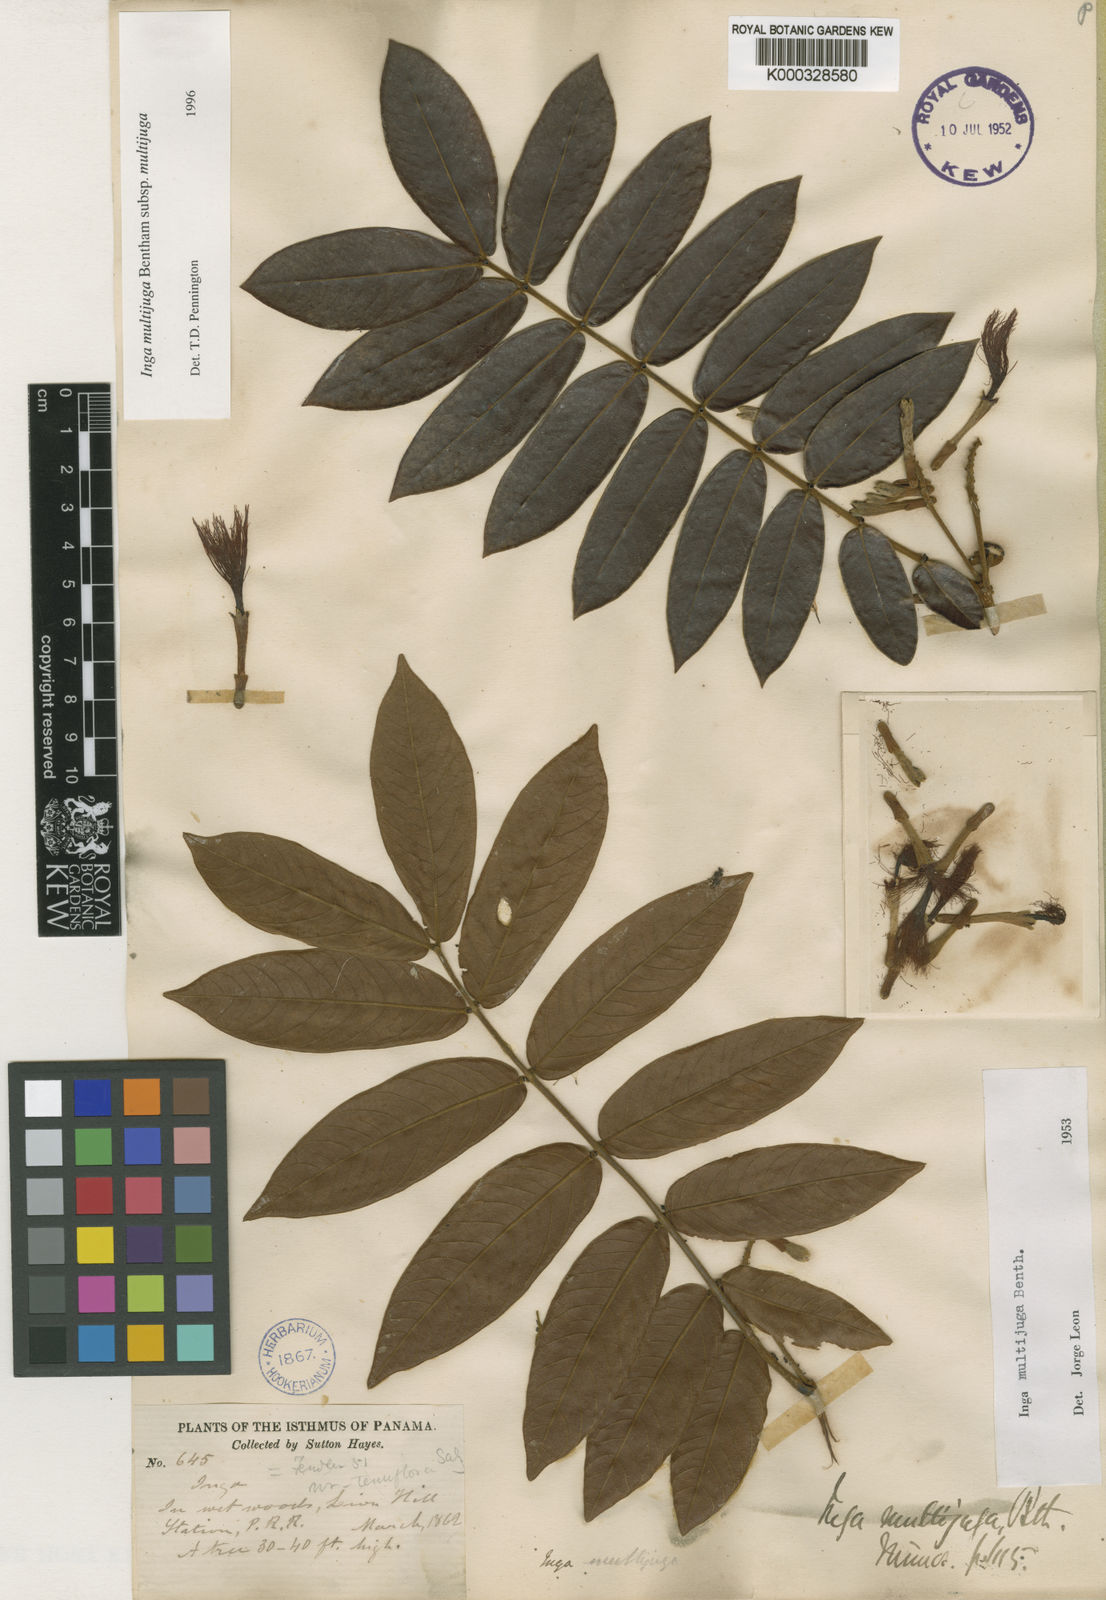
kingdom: Plantae
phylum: Tracheophyta
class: Magnoliopsida
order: Fabales
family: Fabaceae
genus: Inga
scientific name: Inga multijuga
